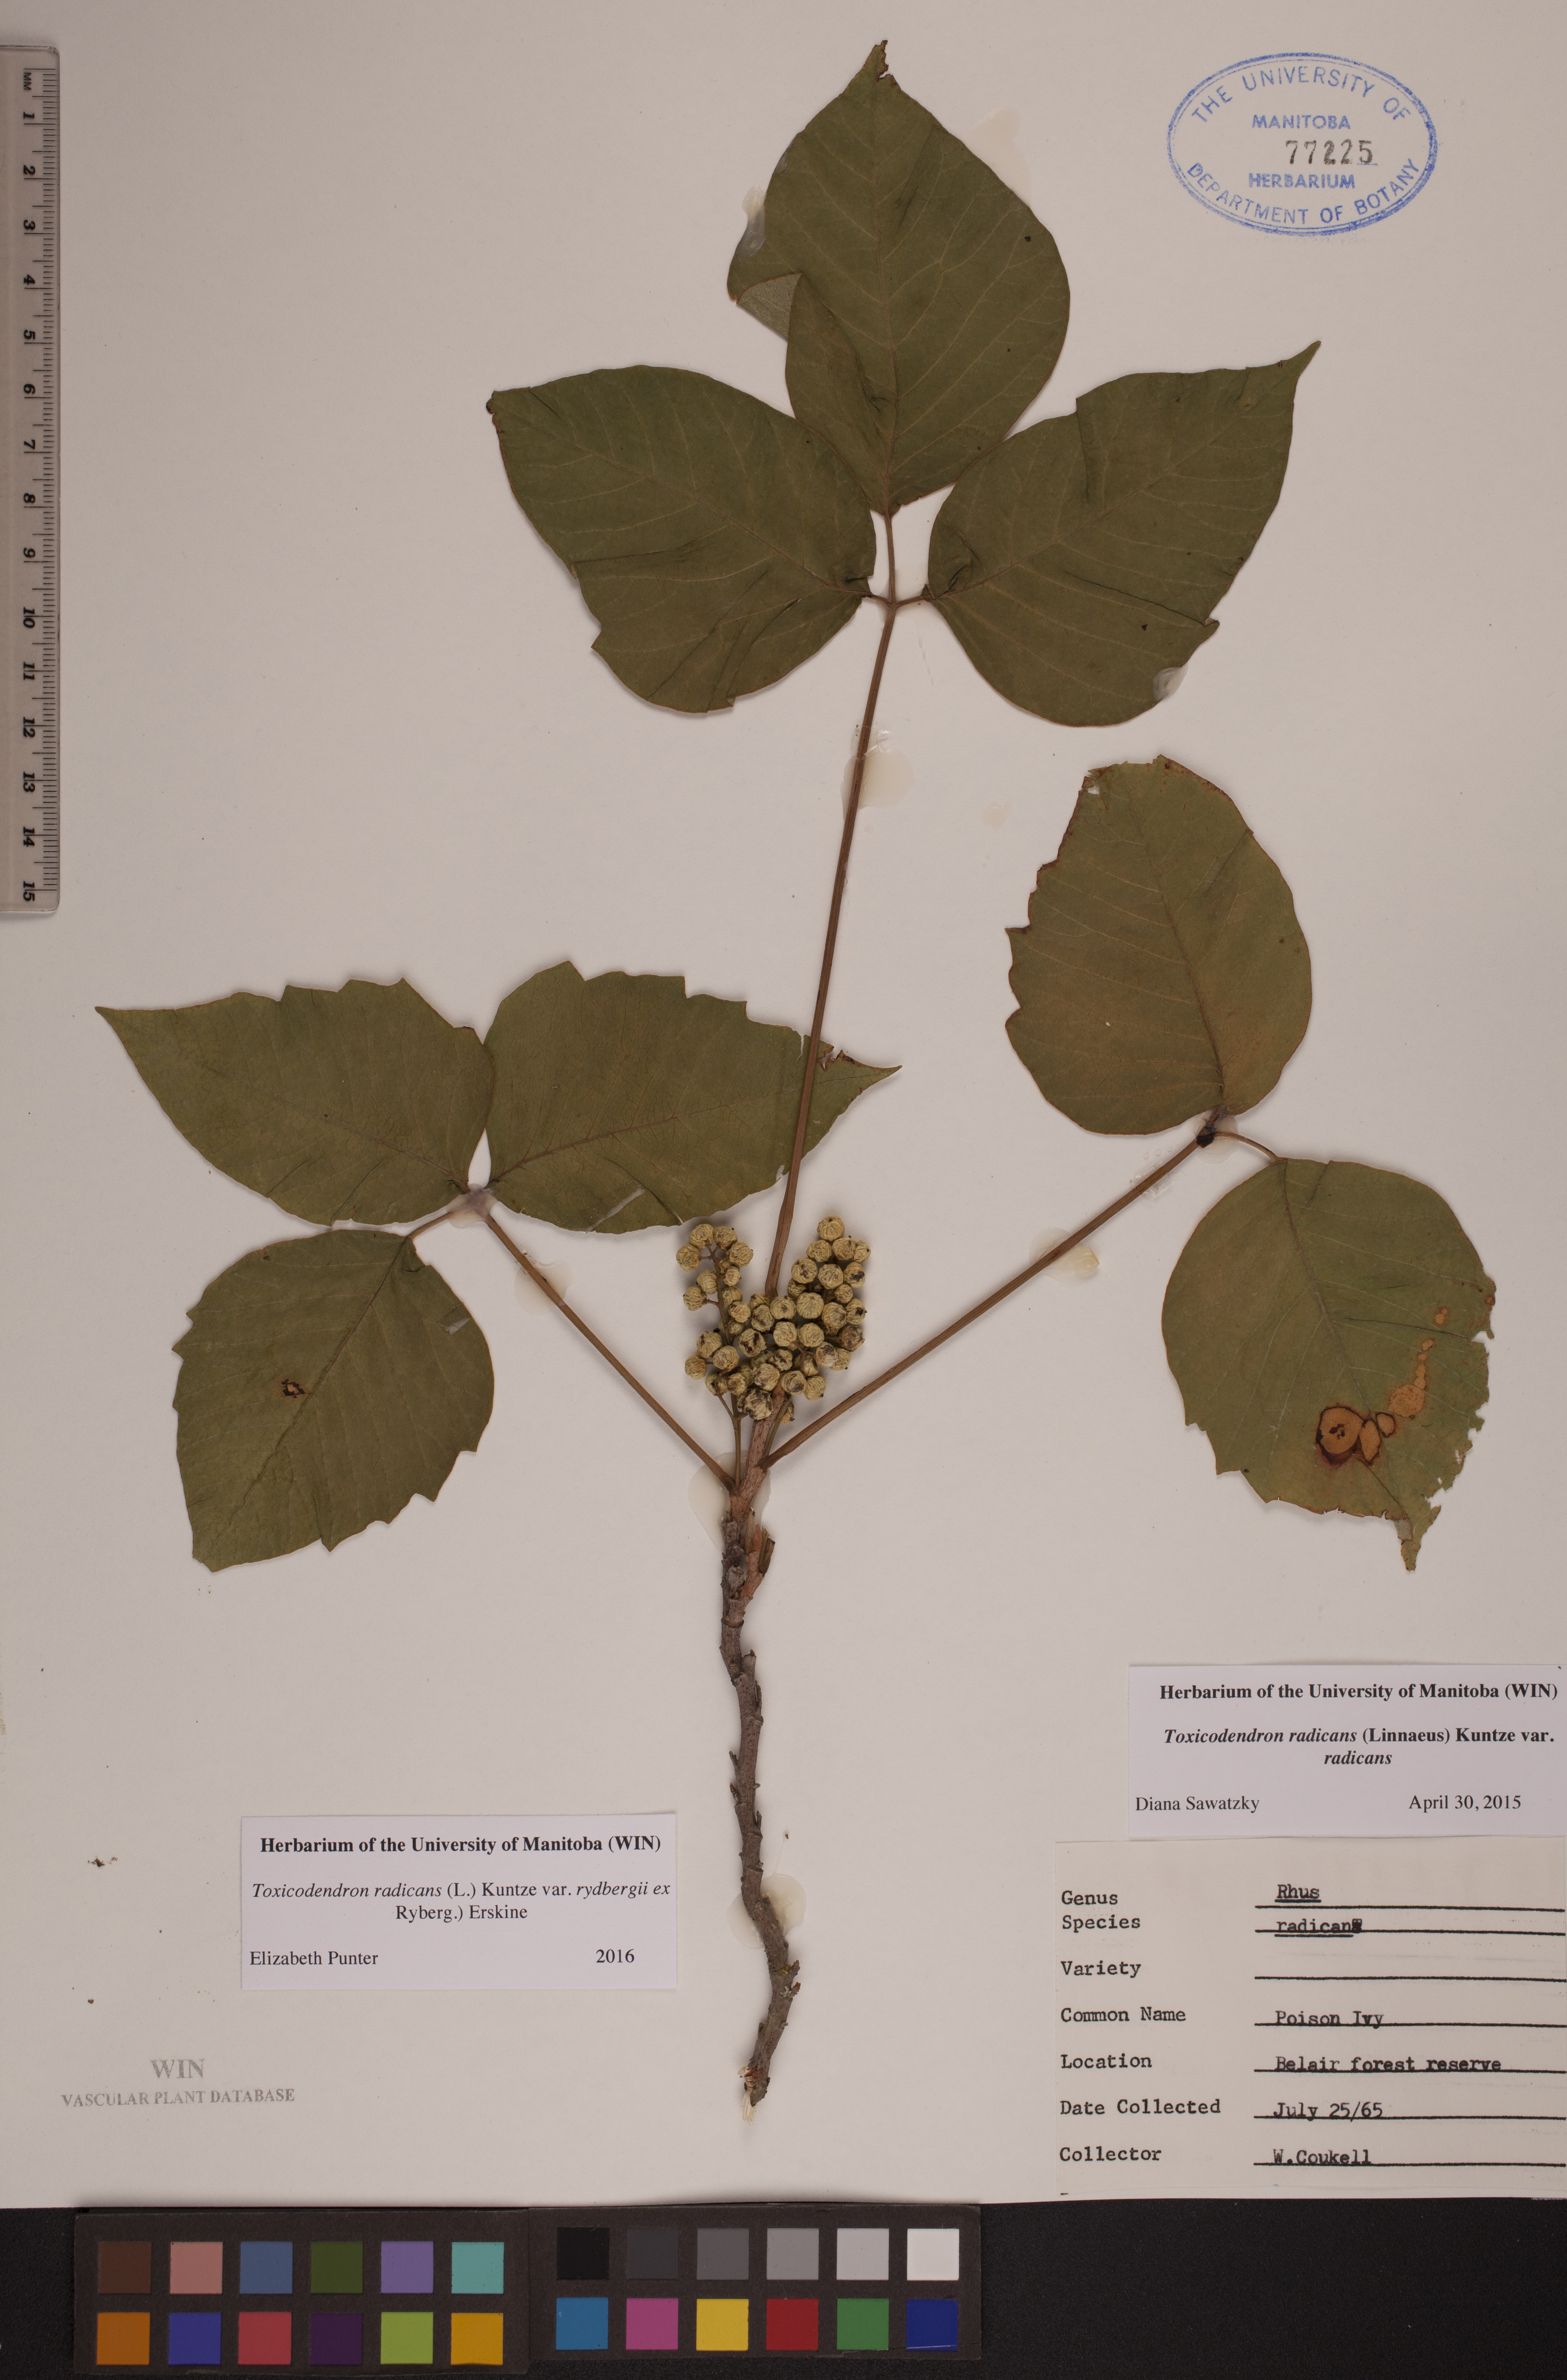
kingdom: Plantae
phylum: Tracheophyta
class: Magnoliopsida
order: Sapindales
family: Anacardiaceae
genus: Toxicodendron
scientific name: Toxicodendron rydbergii
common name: Rydberg's poison-ivy
